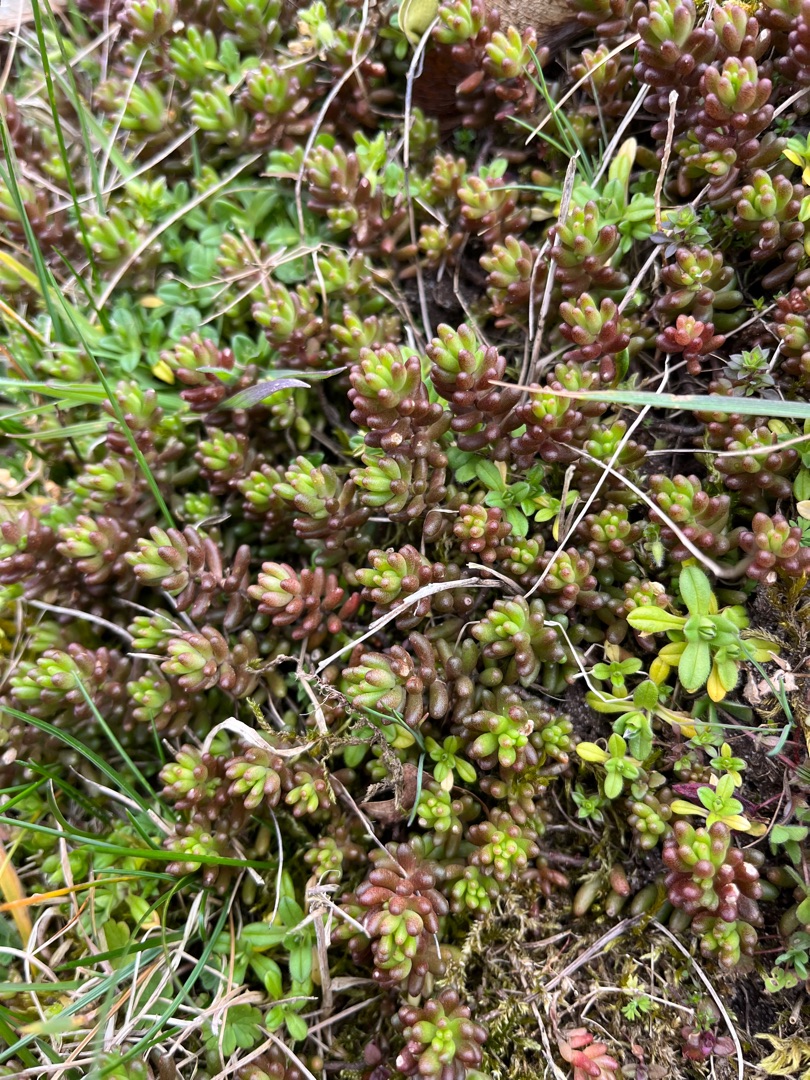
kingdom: Plantae
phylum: Tracheophyta
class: Magnoliopsida
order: Saxifragales
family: Crassulaceae
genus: Sedum
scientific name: Sedum album
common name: Hvid stenurt
